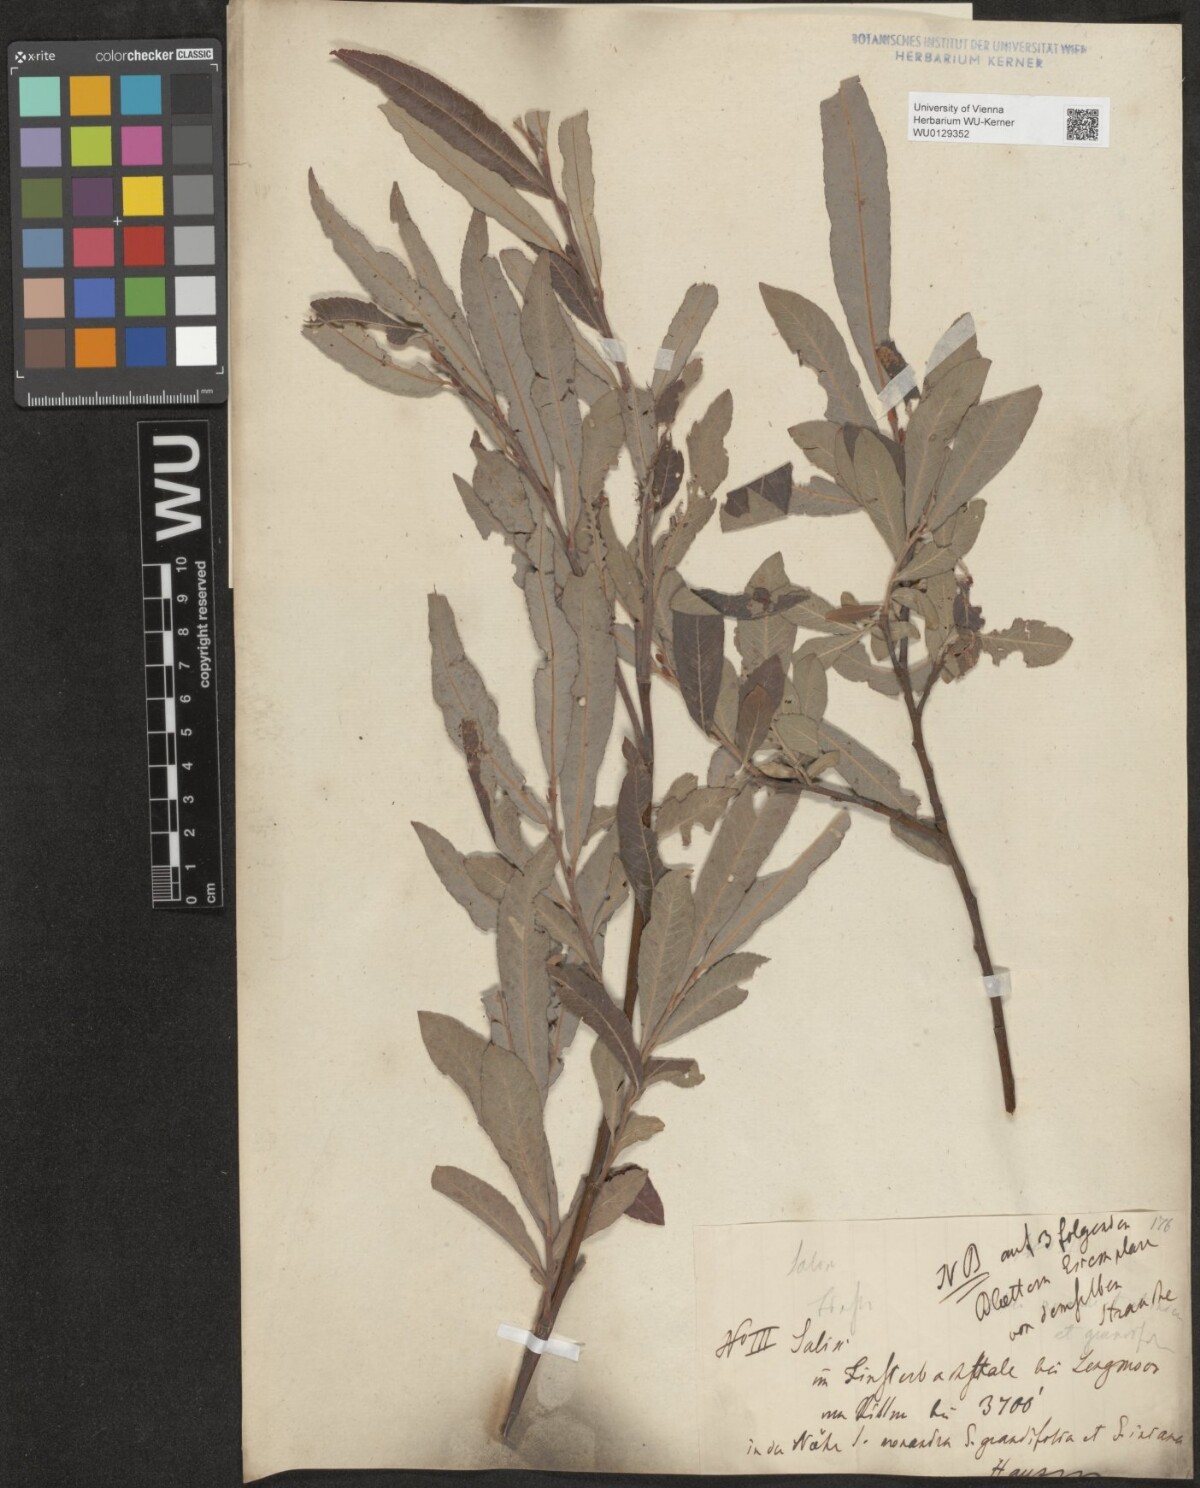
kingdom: Plantae
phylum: Tracheophyta
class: Magnoliopsida
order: Malpighiales
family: Salicaceae
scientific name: Salicaceae
